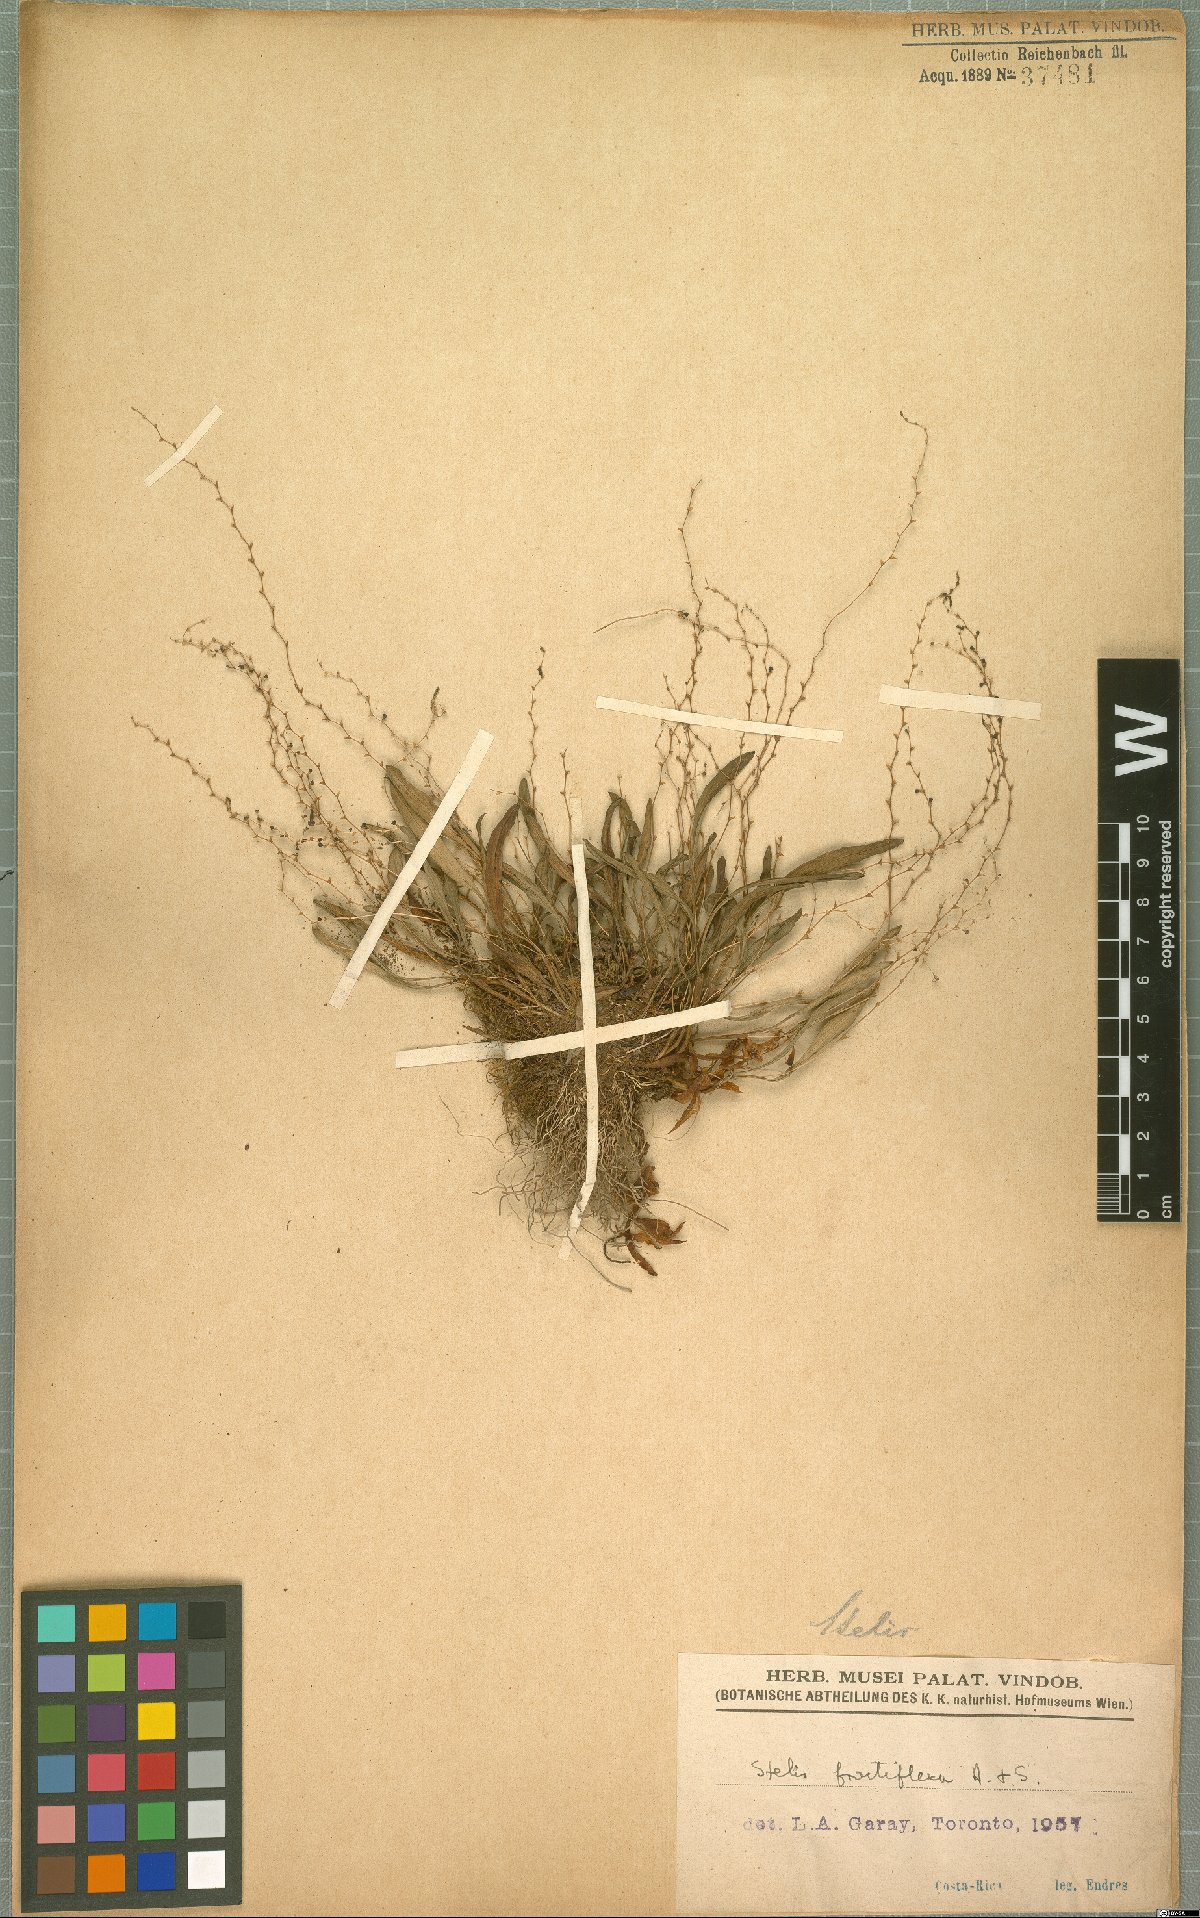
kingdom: Plantae
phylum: Tracheophyta
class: Liliopsida
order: Asparagales
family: Orchidaceae
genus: Stelis
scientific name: Stelis fractiflexa
